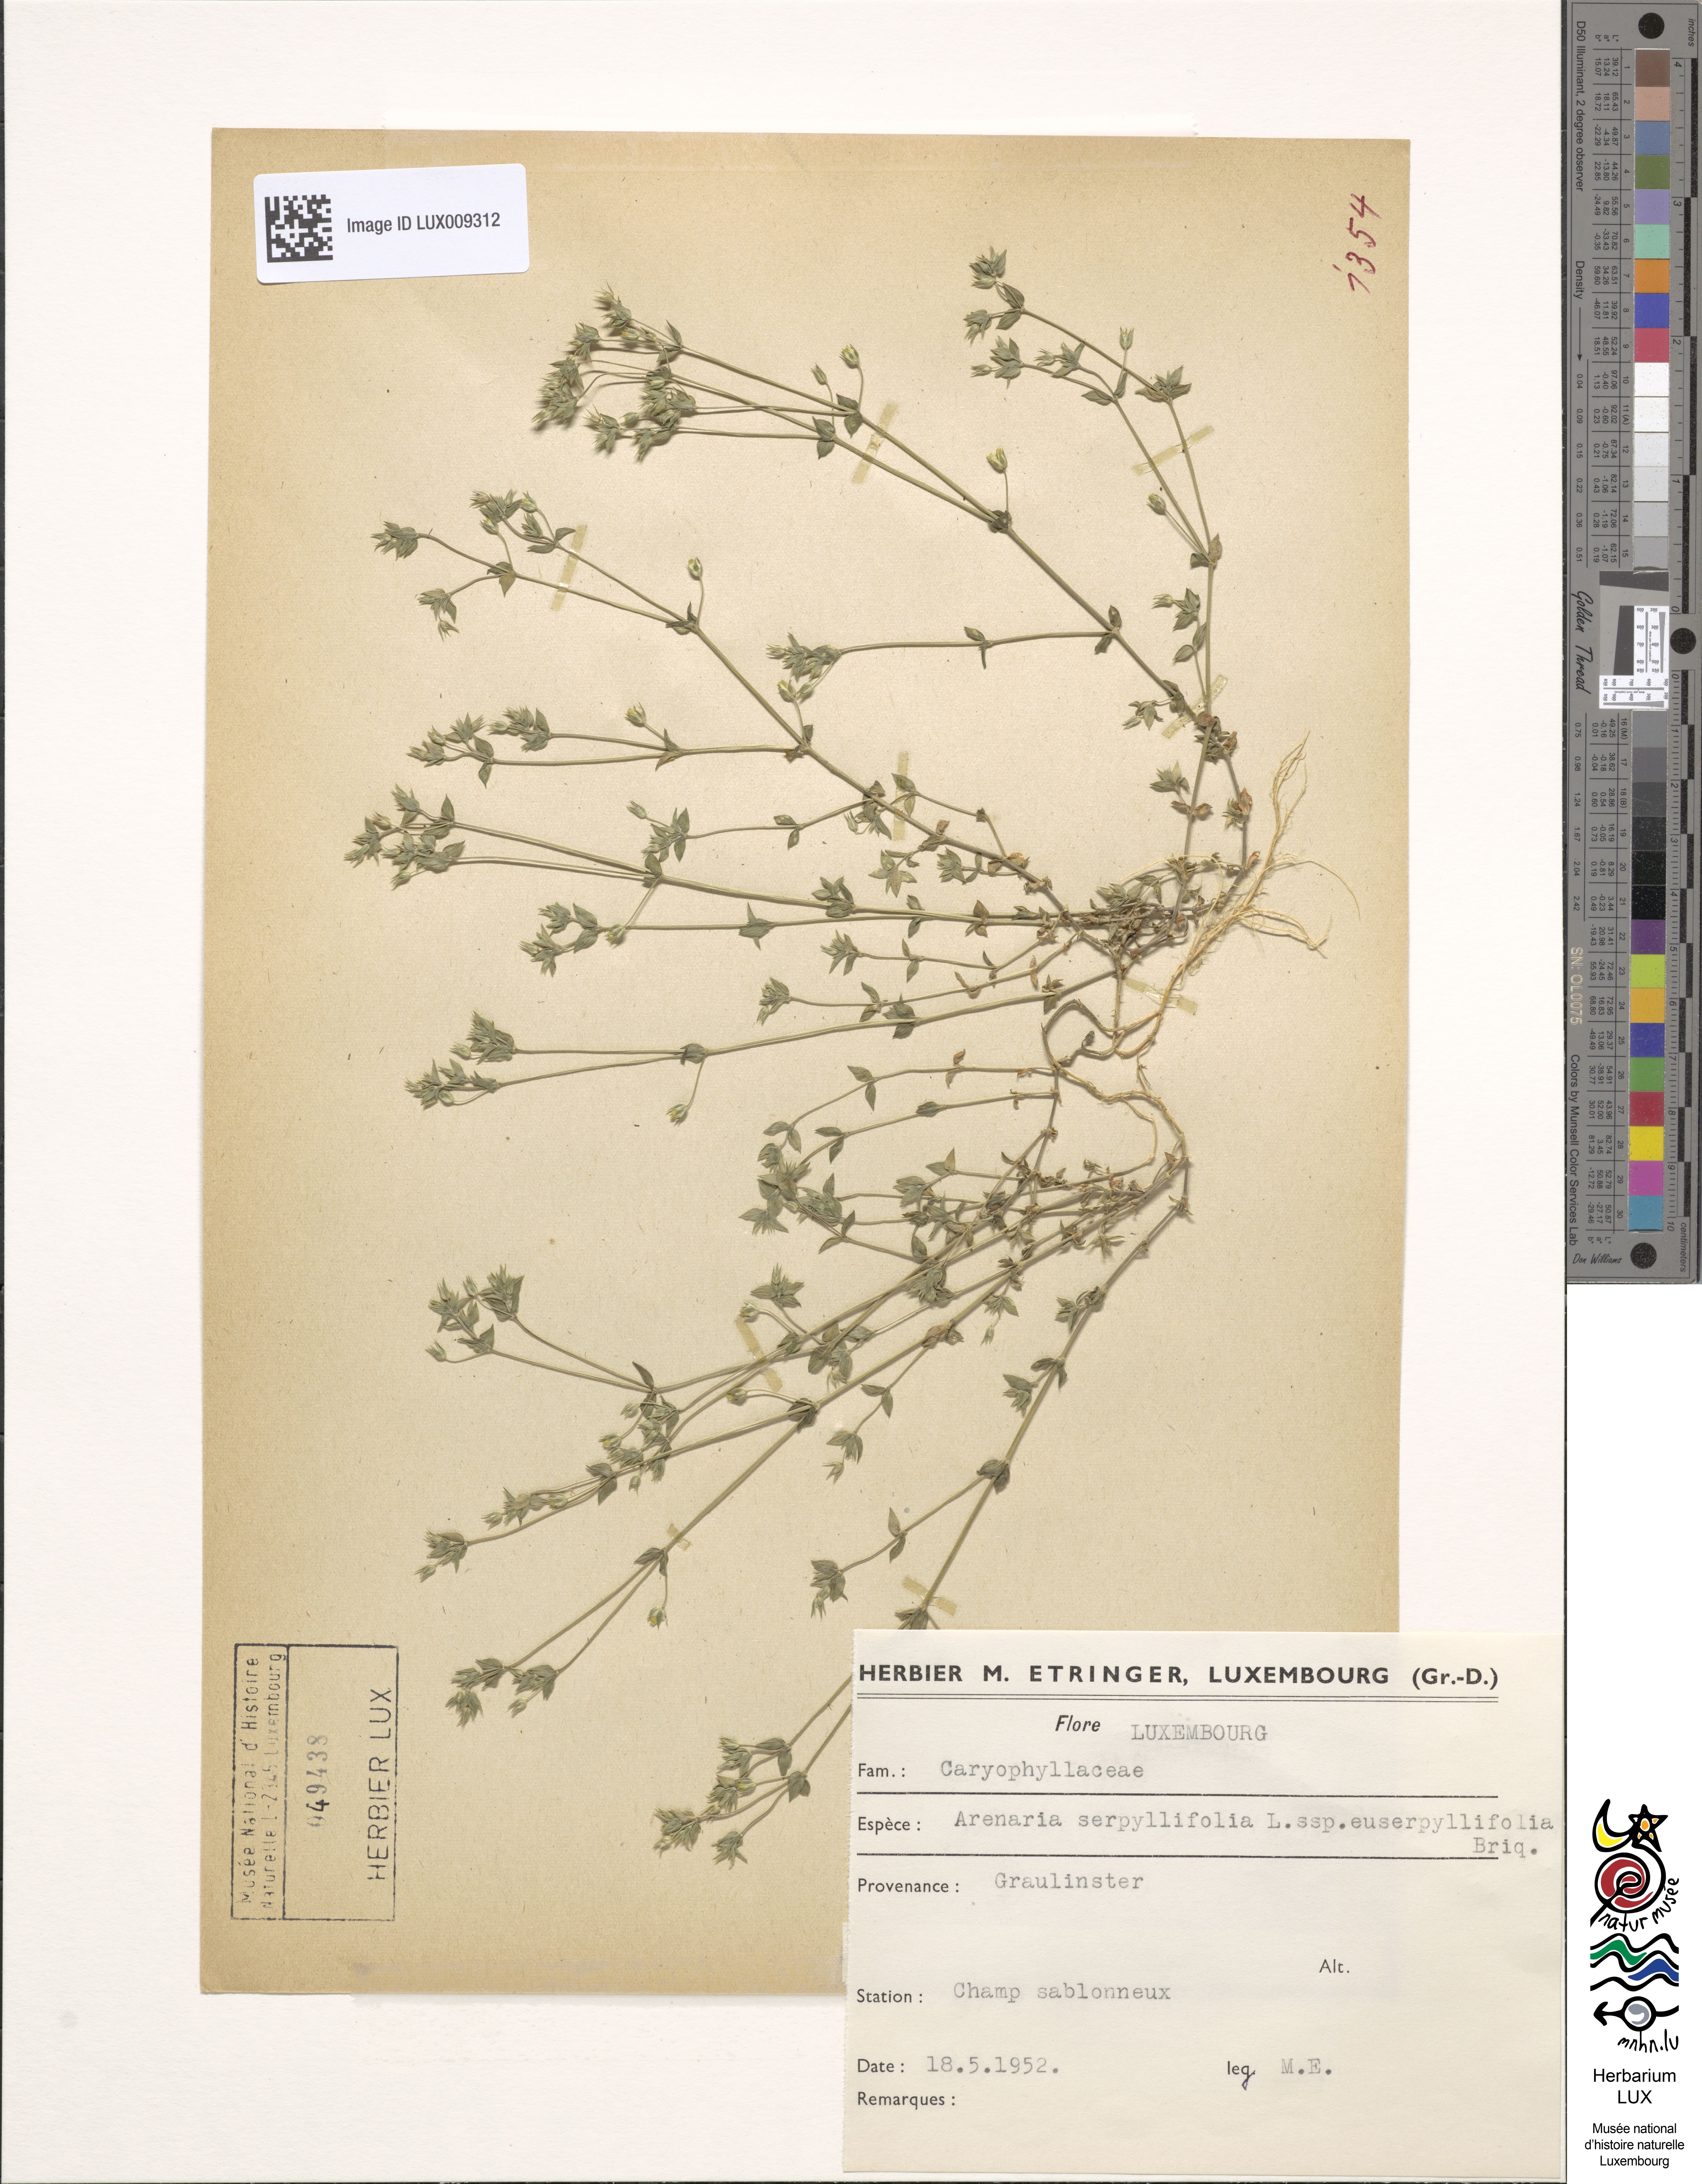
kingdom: Plantae
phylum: Tracheophyta
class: Magnoliopsida
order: Caryophyllales
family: Caryophyllaceae
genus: Arenaria
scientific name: Arenaria serpyllifolia
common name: Thyme-leaved sandwort
